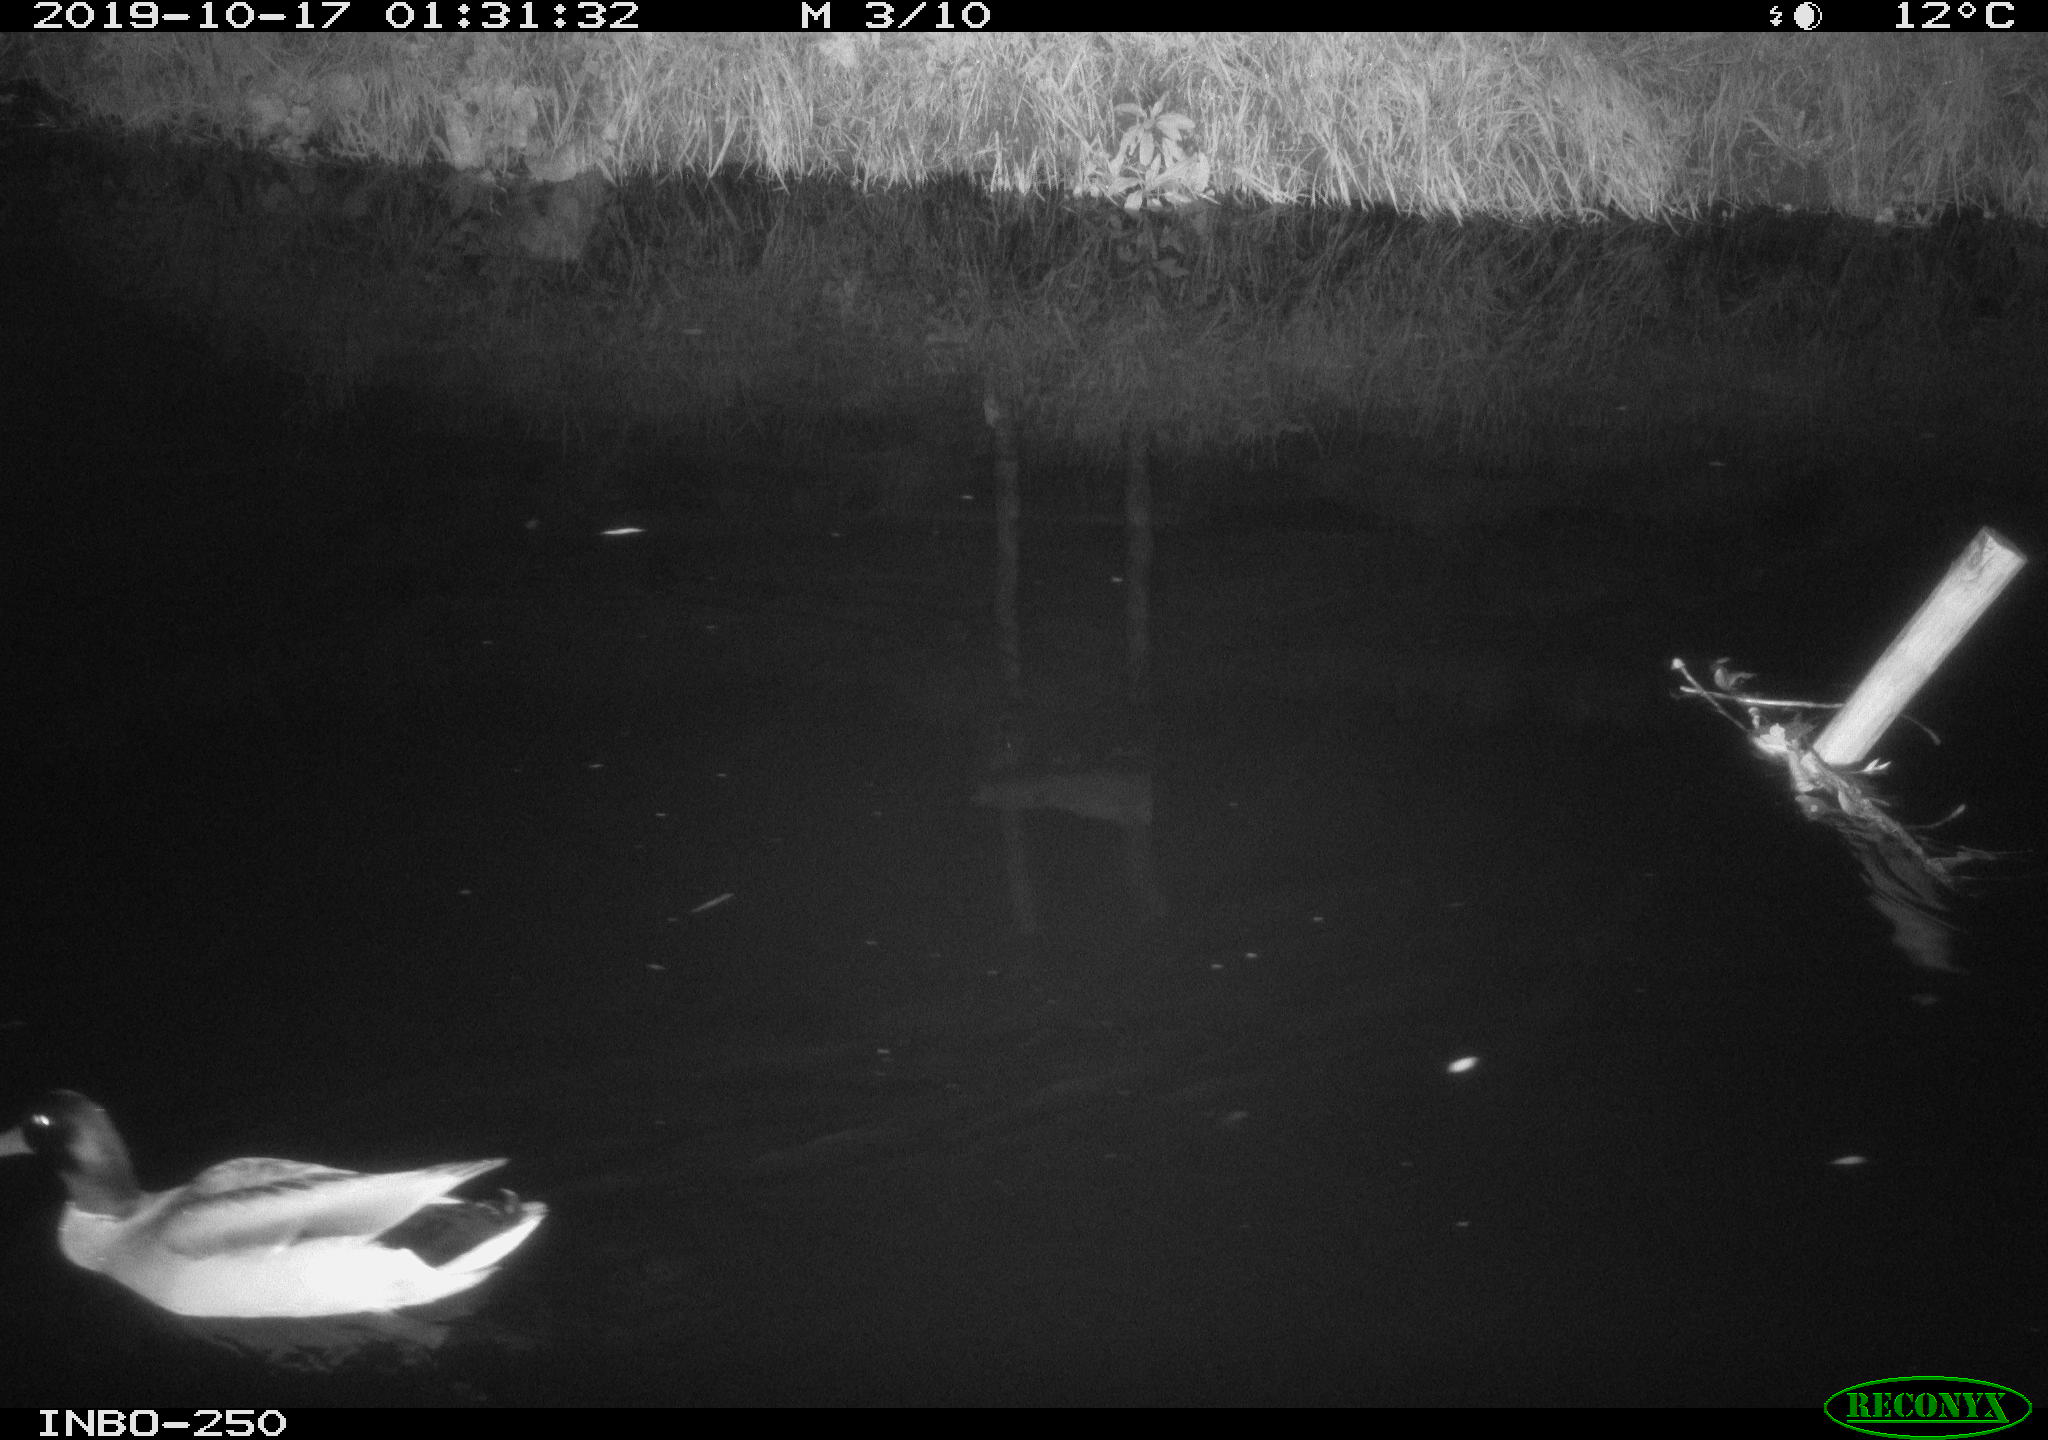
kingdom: Animalia
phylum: Chordata
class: Aves
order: Anseriformes
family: Anatidae
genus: Anas
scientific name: Anas platyrhynchos
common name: Mallard
